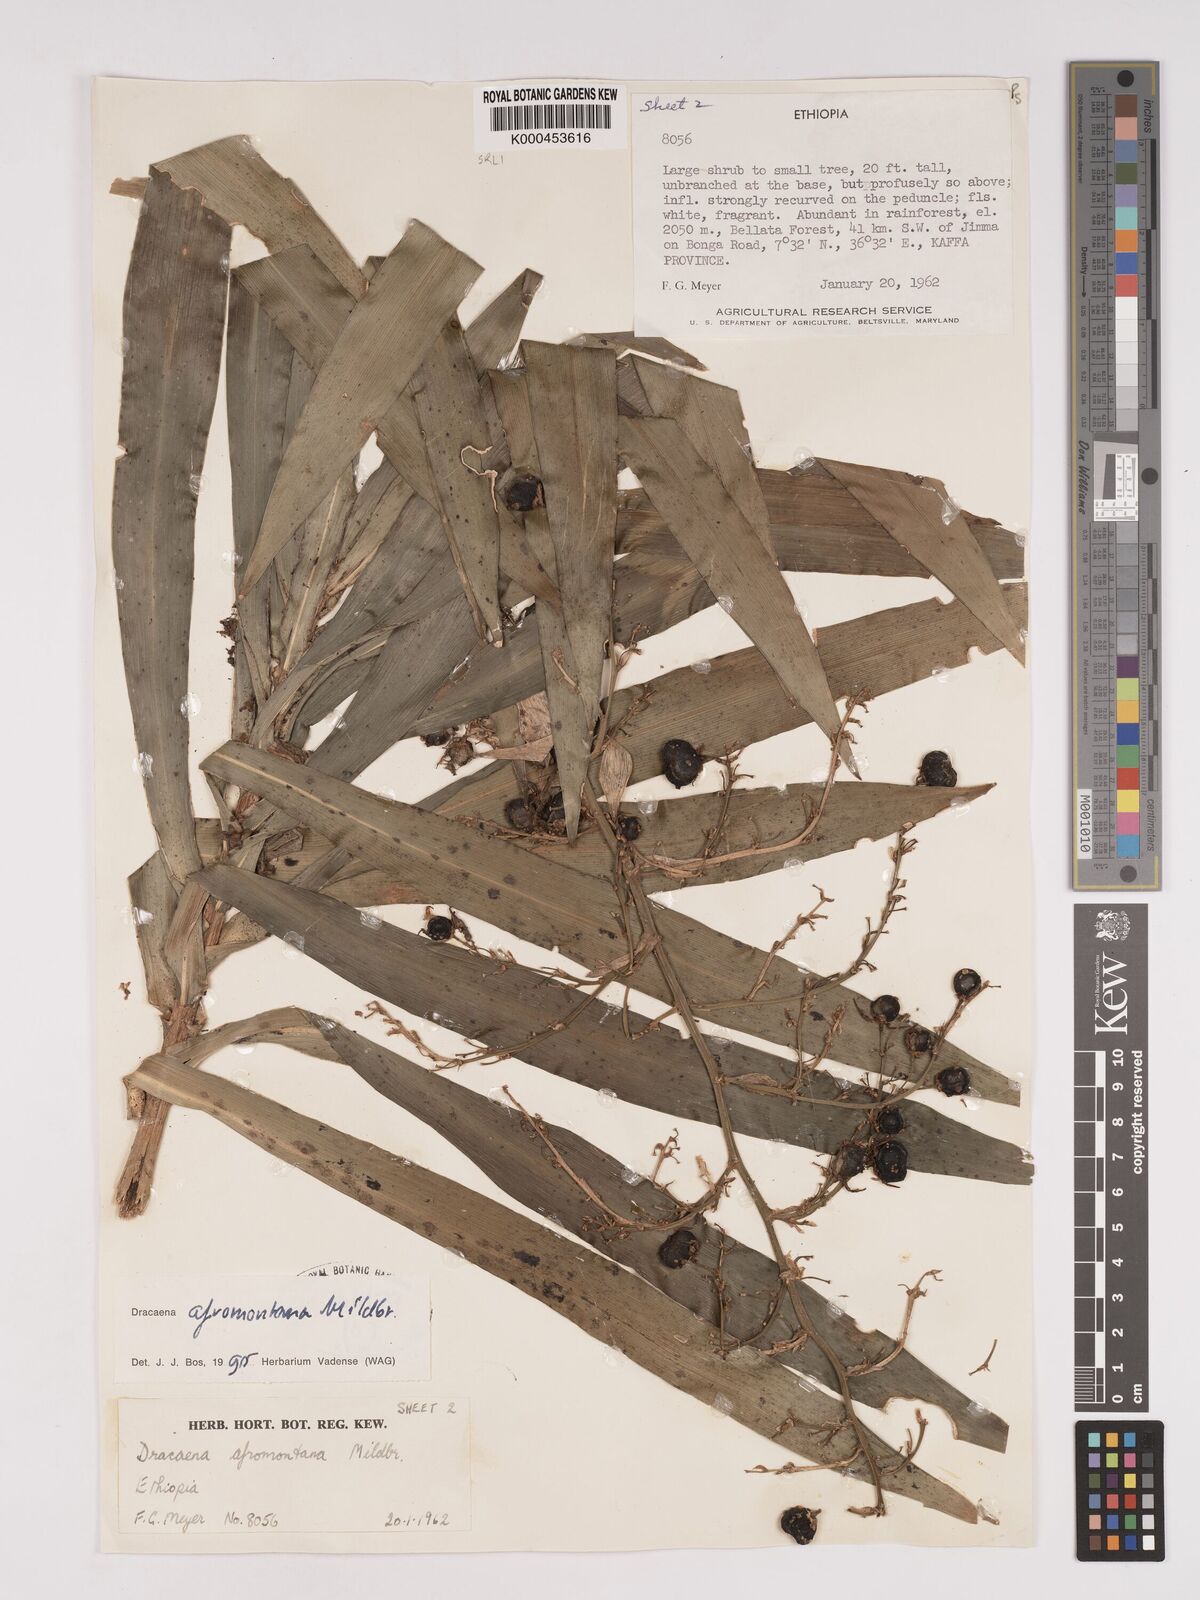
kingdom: Plantae
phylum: Tracheophyta
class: Liliopsida
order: Asparagales
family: Asparagaceae
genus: Dracaena
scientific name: Dracaena afromontana
